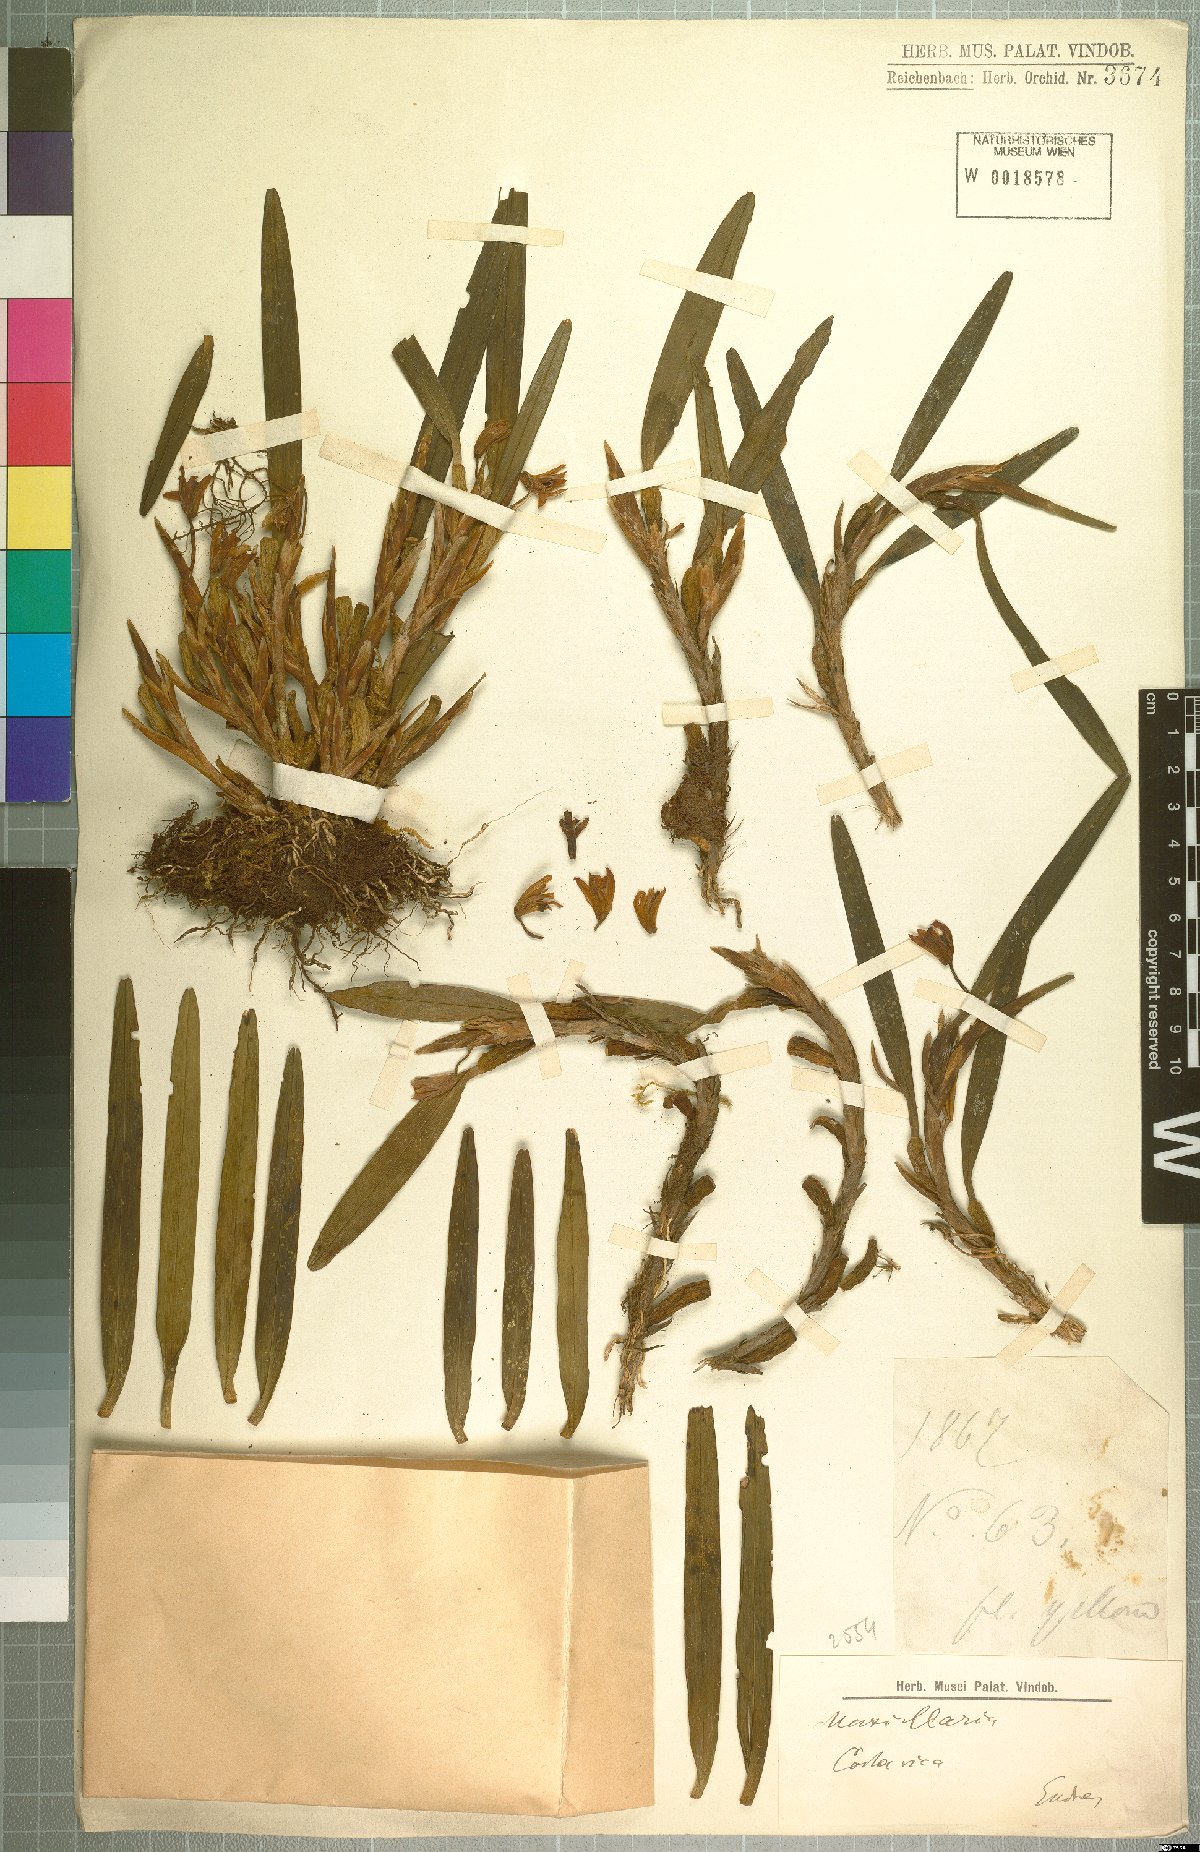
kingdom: Plantae
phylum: Tracheophyta
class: Liliopsida
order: Asparagales
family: Orchidaceae
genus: Maxillaria
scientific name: Maxillaria
